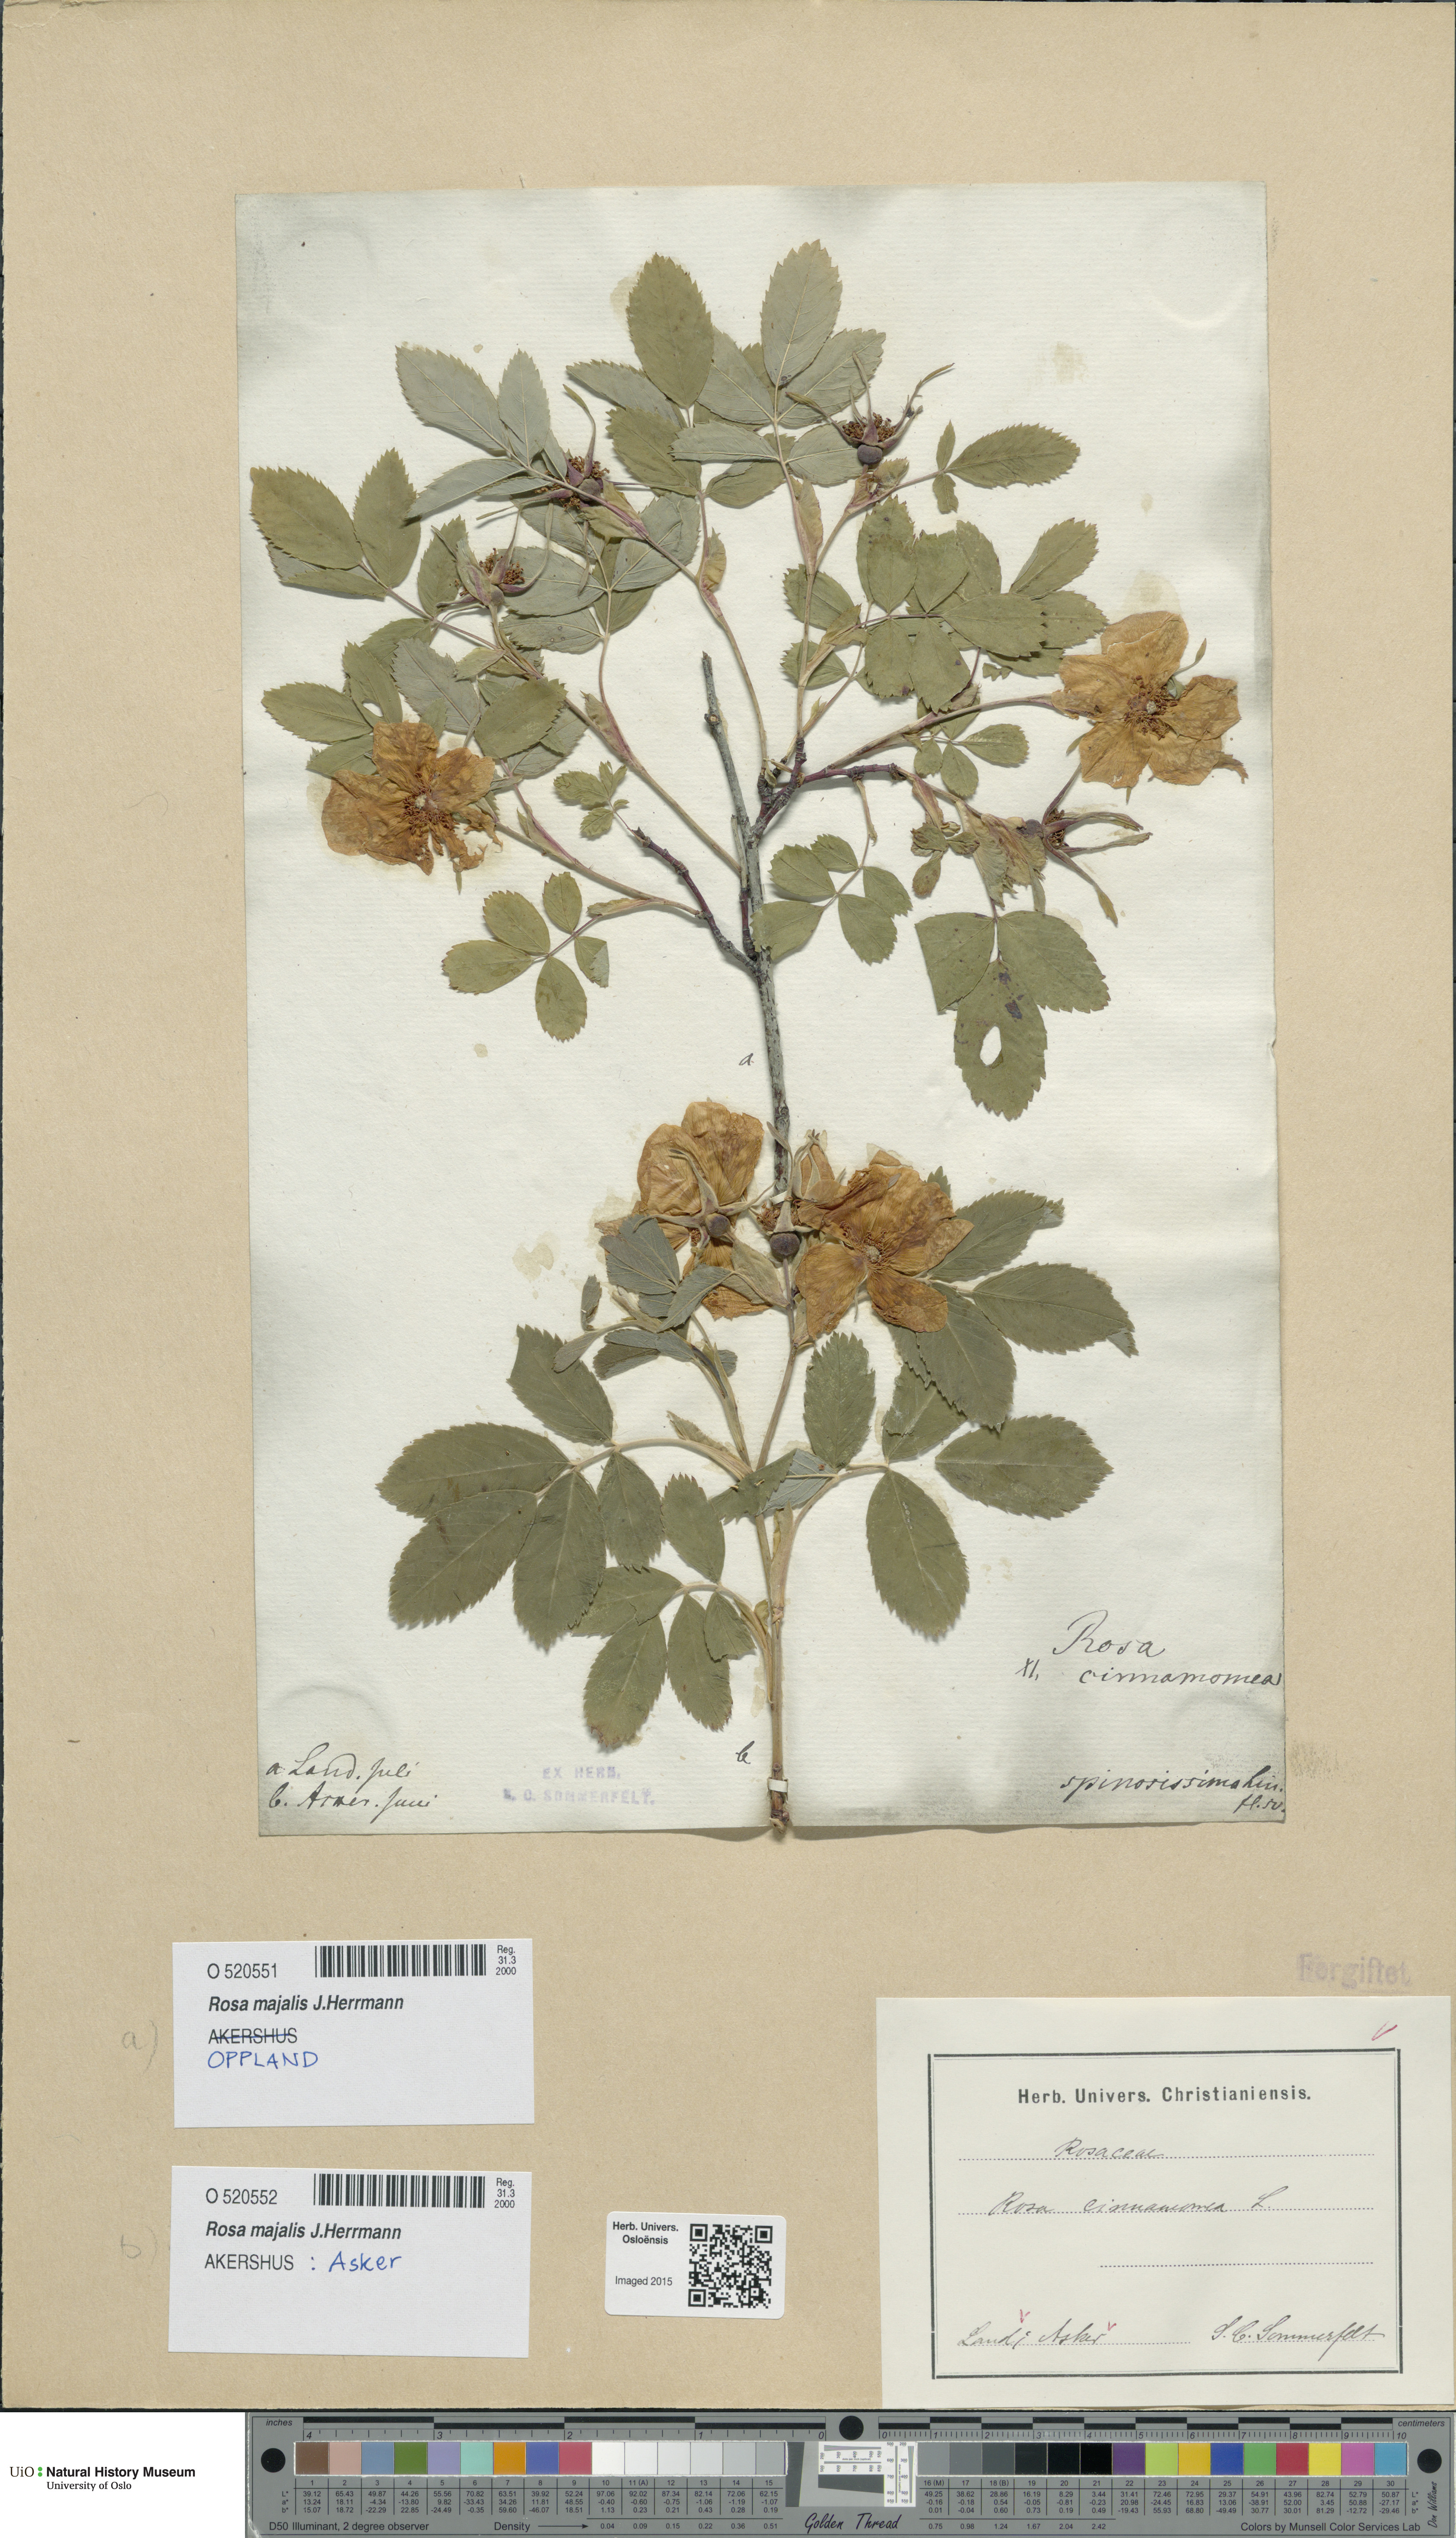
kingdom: Plantae
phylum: Tracheophyta
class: Magnoliopsida
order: Rosales
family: Rosaceae
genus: Rosa
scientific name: Rosa pendulina
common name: Alpine rose
